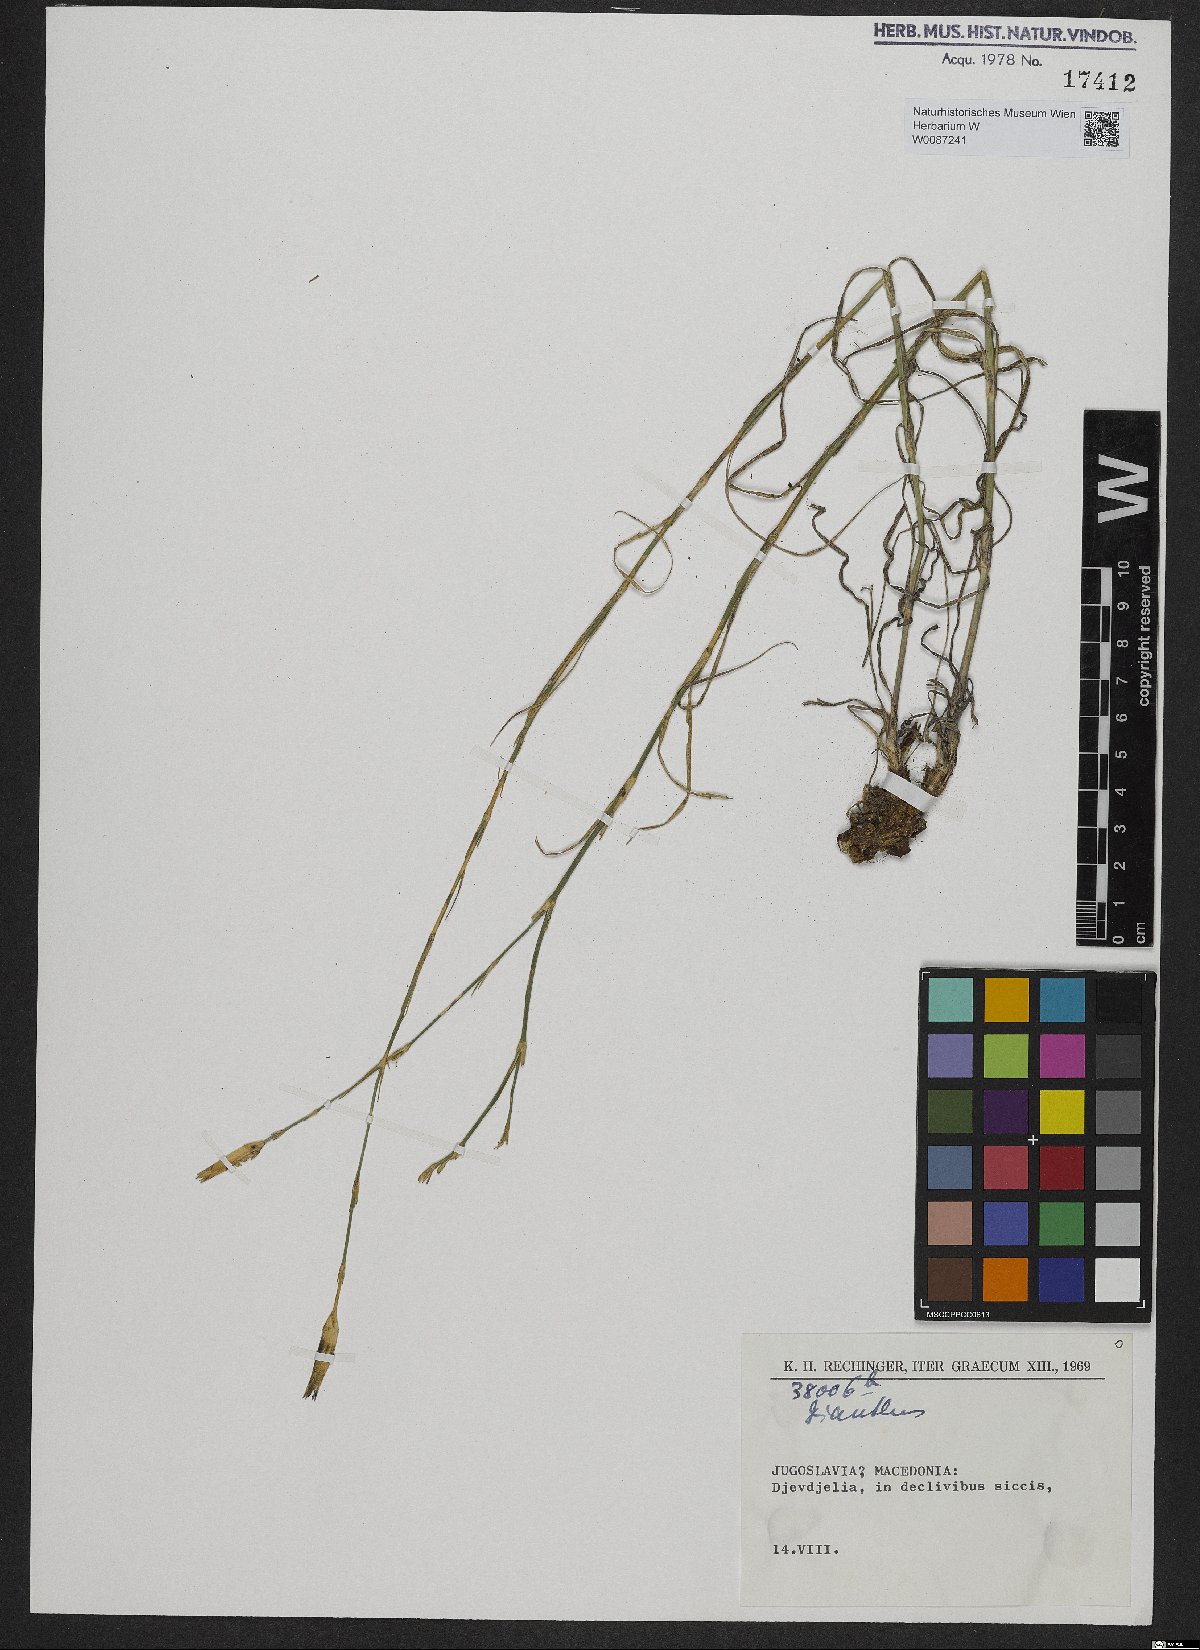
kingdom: Plantae
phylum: Tracheophyta
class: Magnoliopsida
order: Caryophyllales
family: Caryophyllaceae
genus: Dianthus
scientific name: Dianthus
